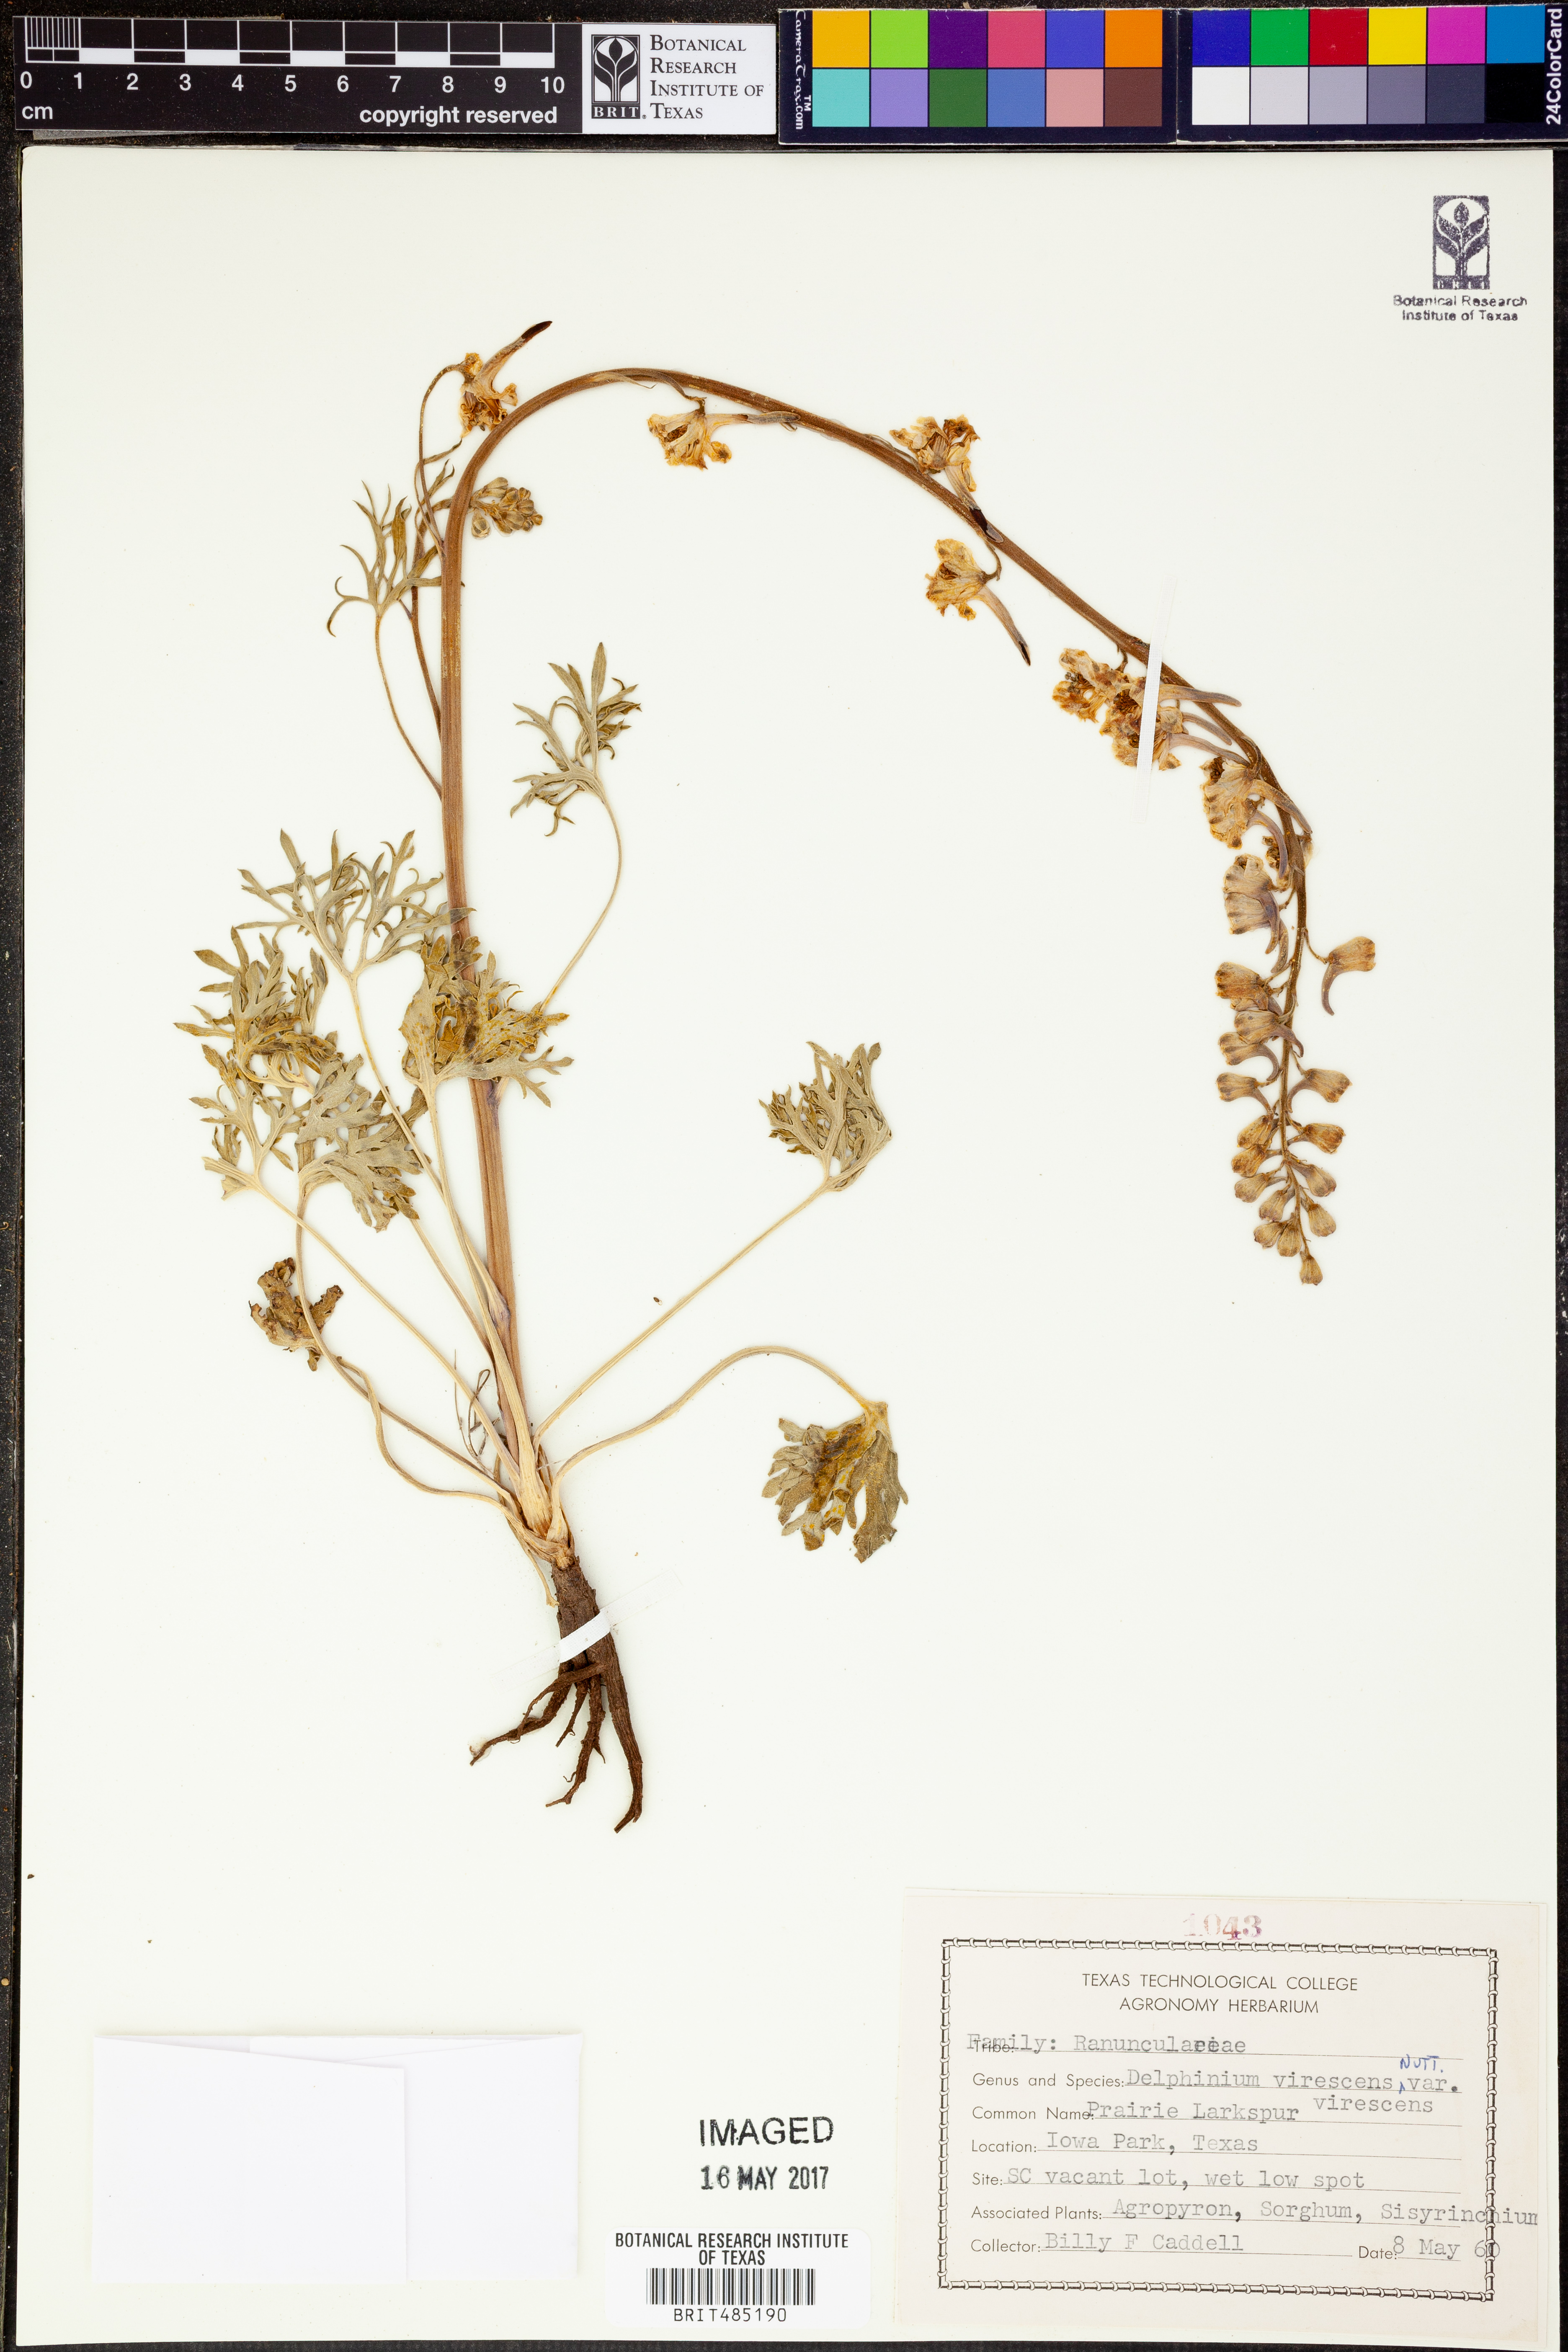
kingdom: Plantae
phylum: Tracheophyta
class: Magnoliopsida
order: Ranunculales
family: Ranunculaceae
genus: Delphinium
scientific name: Delphinium carolinianum
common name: Carolina larkspur
